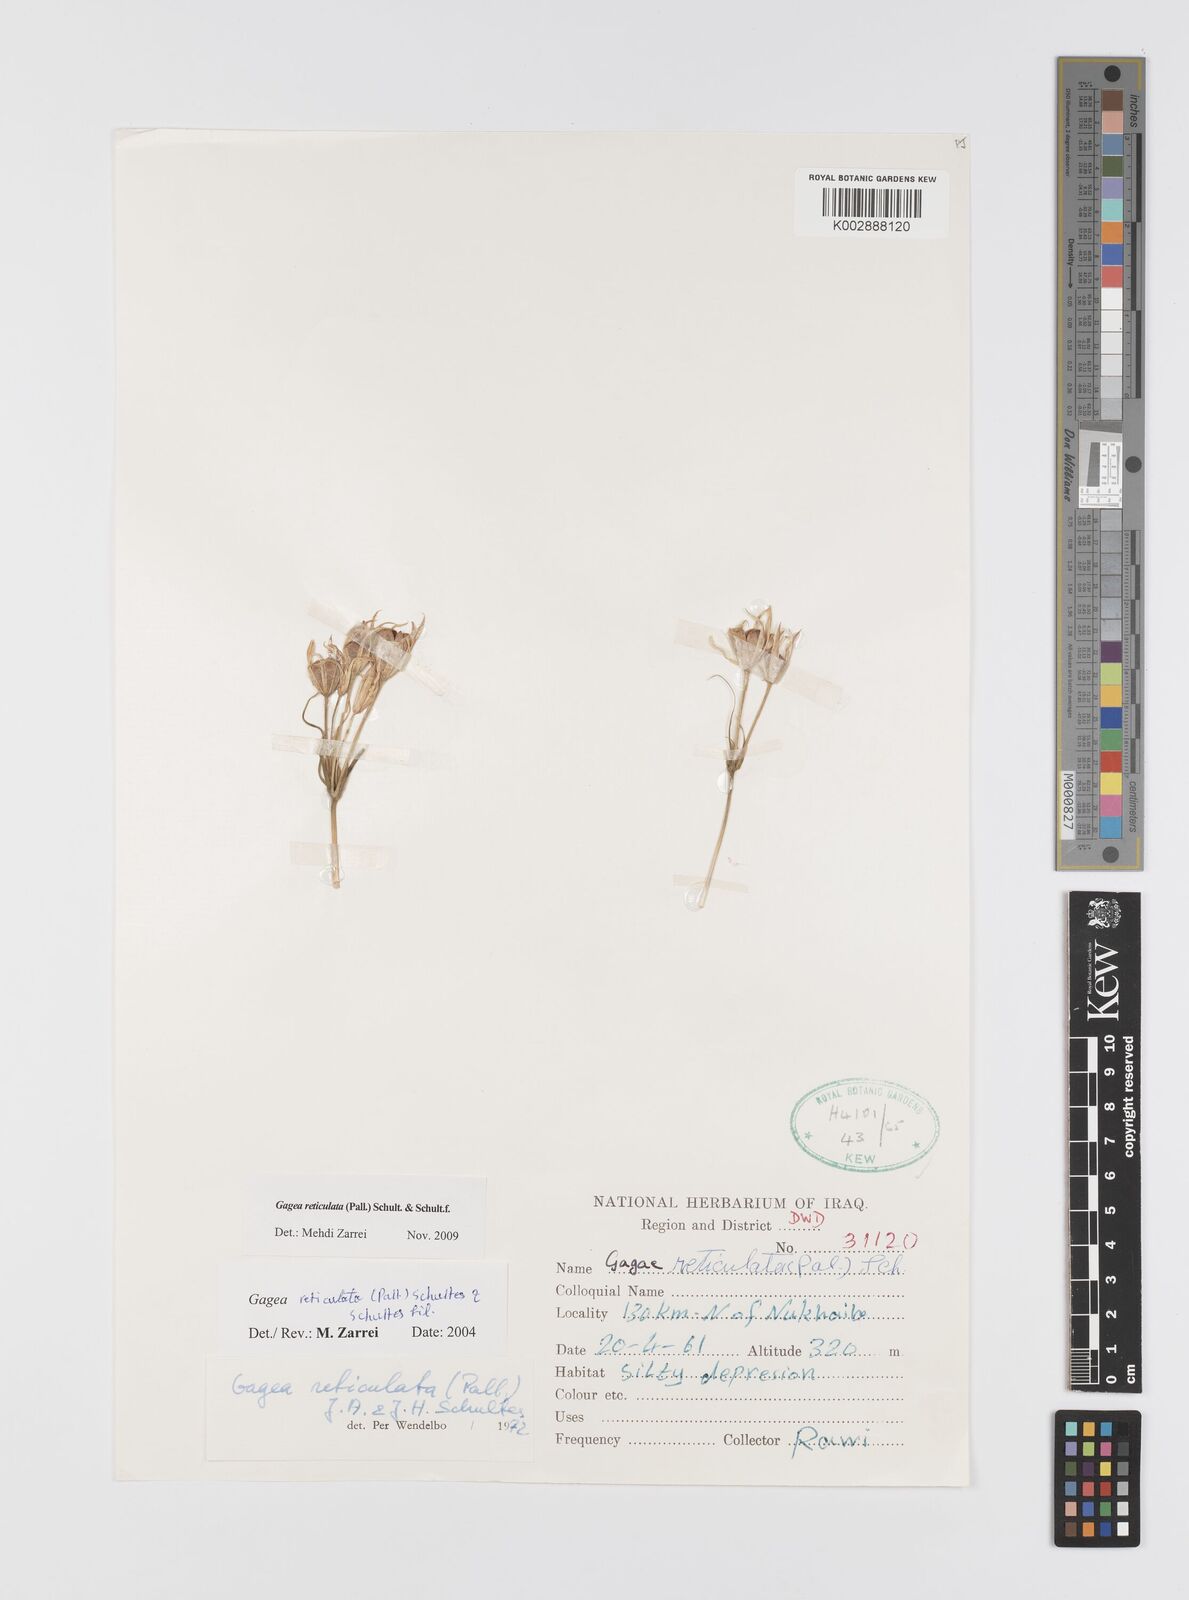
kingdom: Plantae
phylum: Tracheophyta
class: Liliopsida
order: Liliales
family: Liliaceae
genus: Gagea
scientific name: Gagea reticulata
